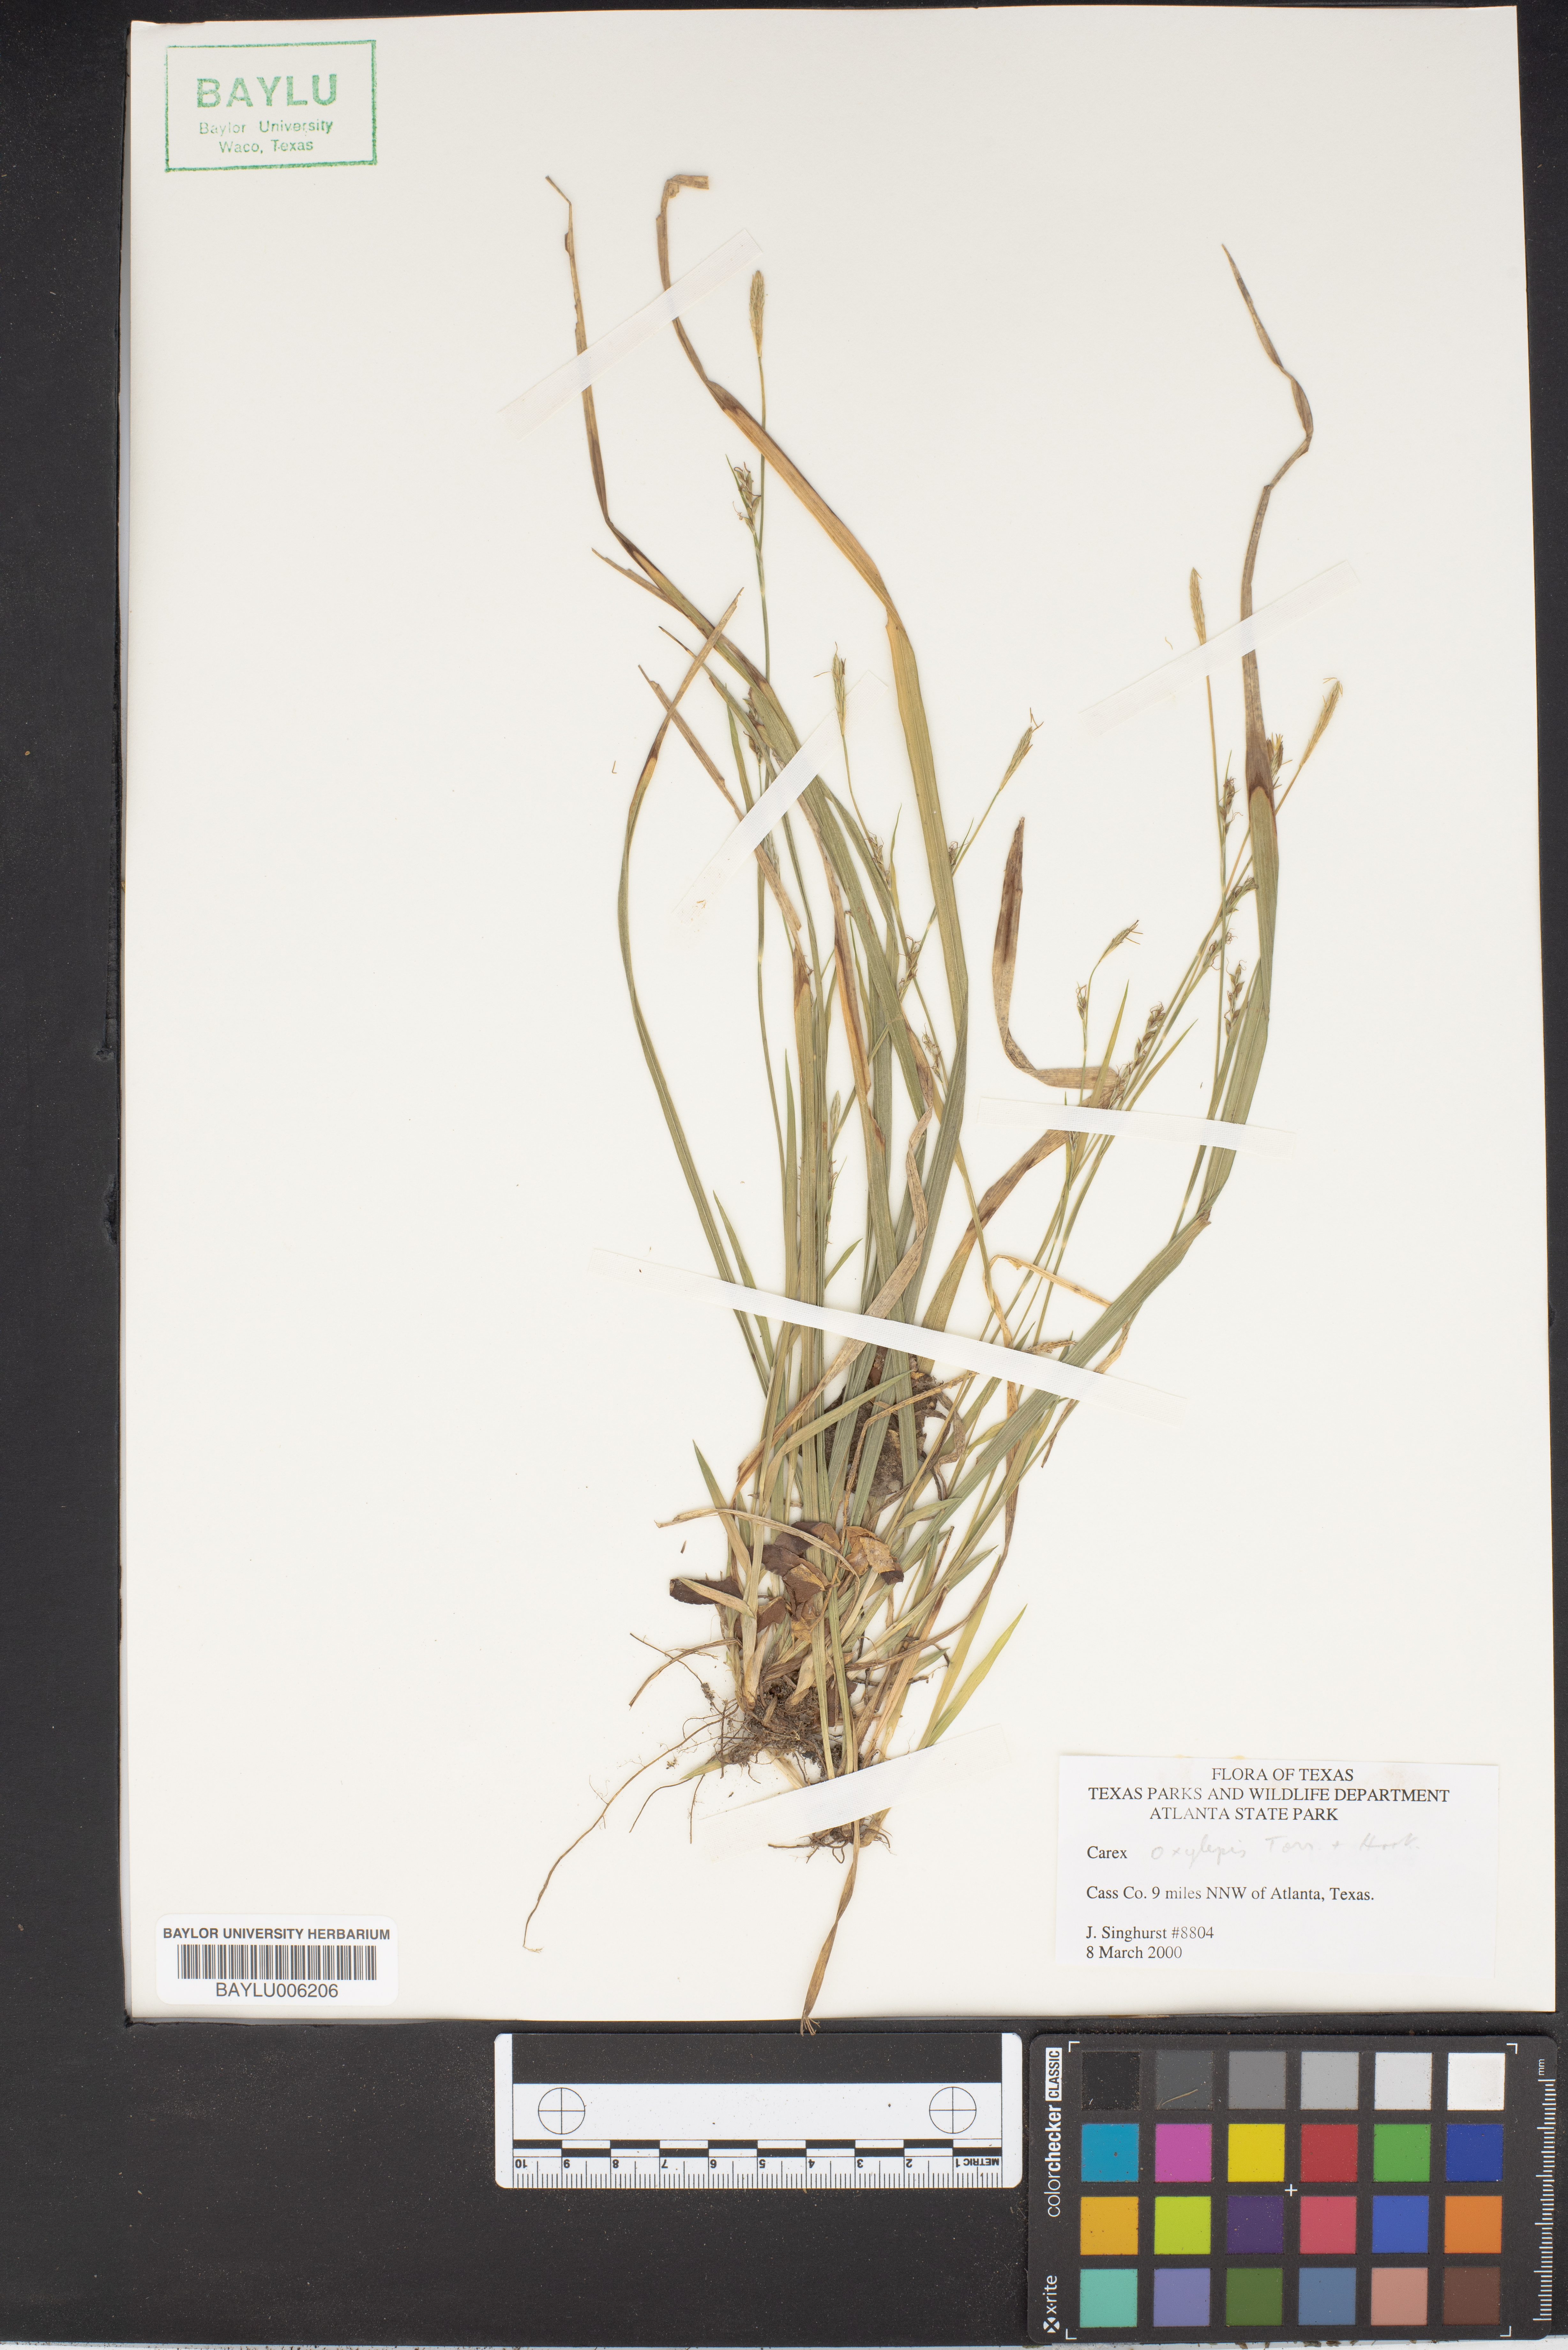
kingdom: Plantae
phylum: Tracheophyta
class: Liliopsida
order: Poales
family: Cyperaceae
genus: Carex
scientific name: Carex oxylepis
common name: Sharpscale sedge
